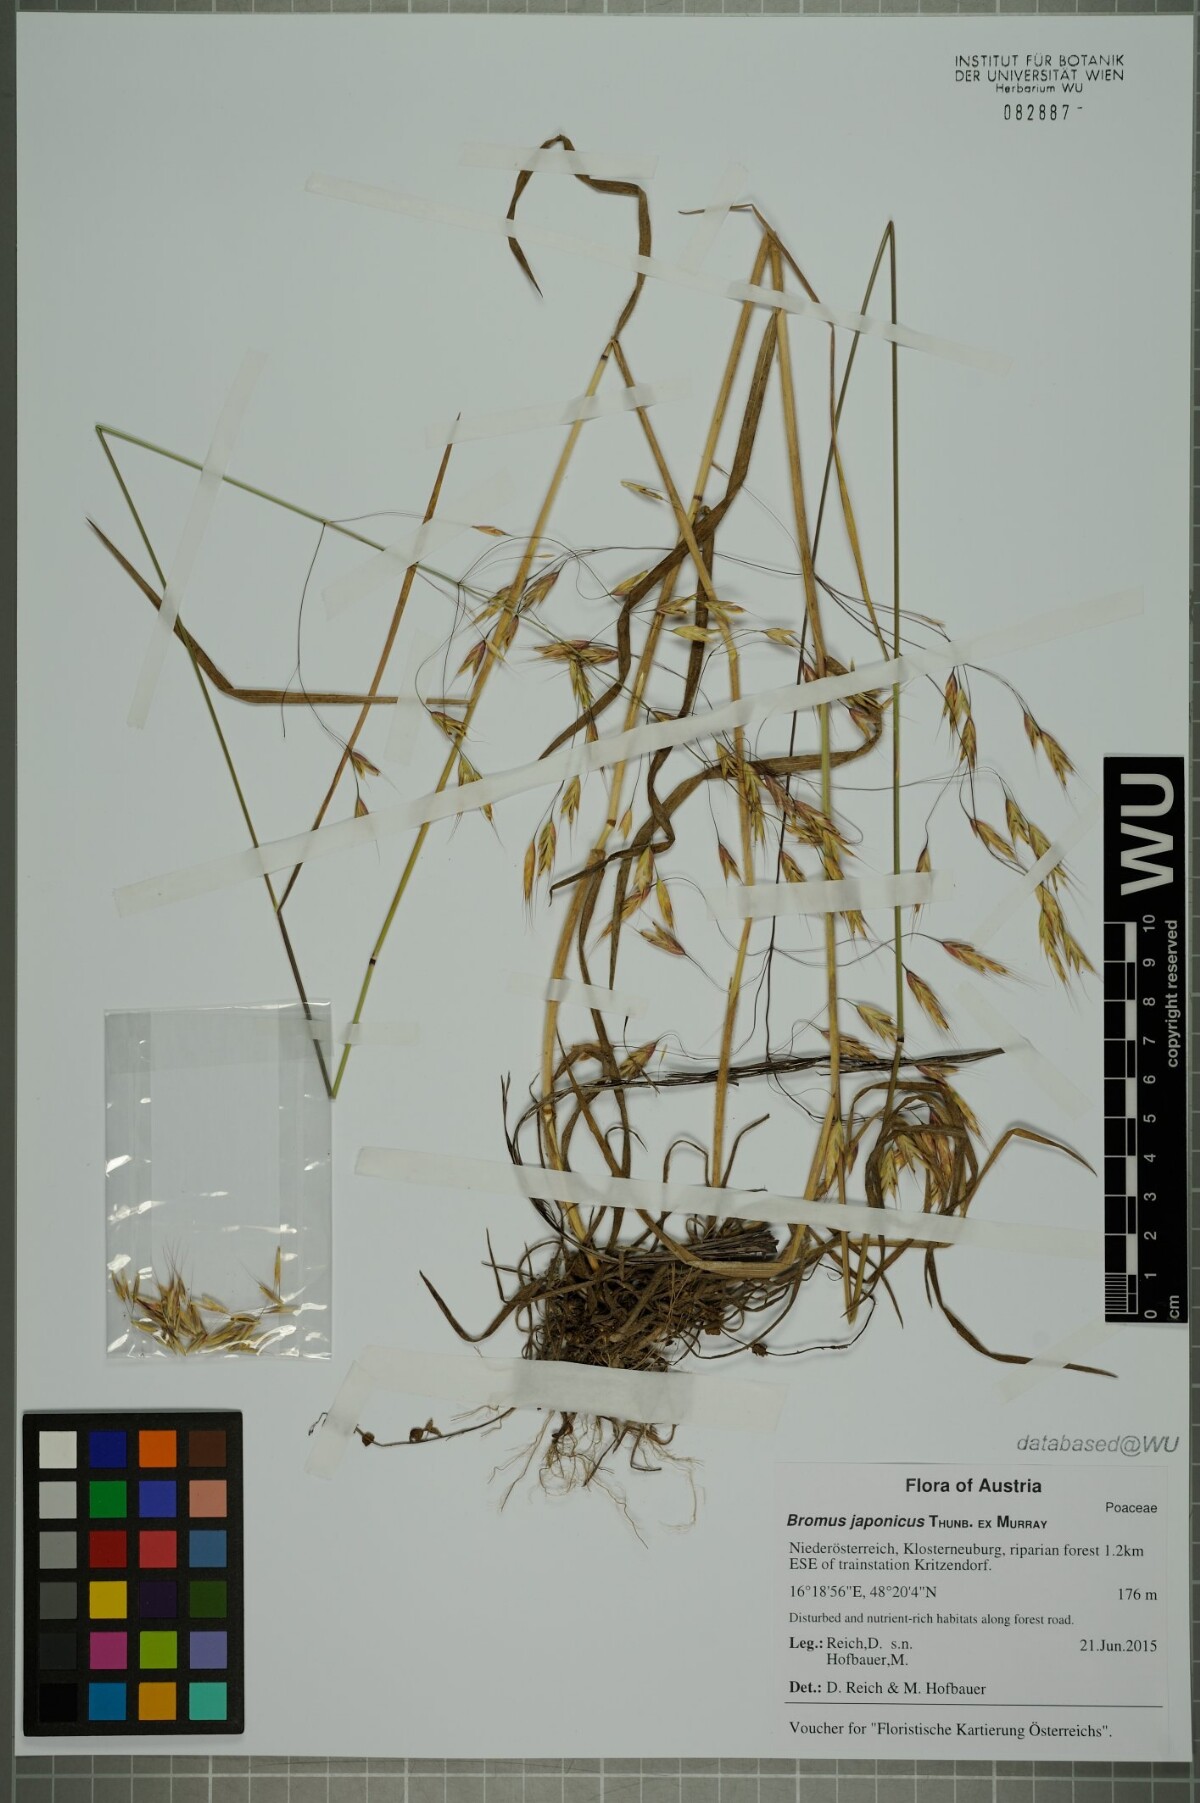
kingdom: Plantae
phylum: Tracheophyta
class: Liliopsida
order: Poales
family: Poaceae
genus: Bromus
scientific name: Bromus japonicus
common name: Japanese brome
